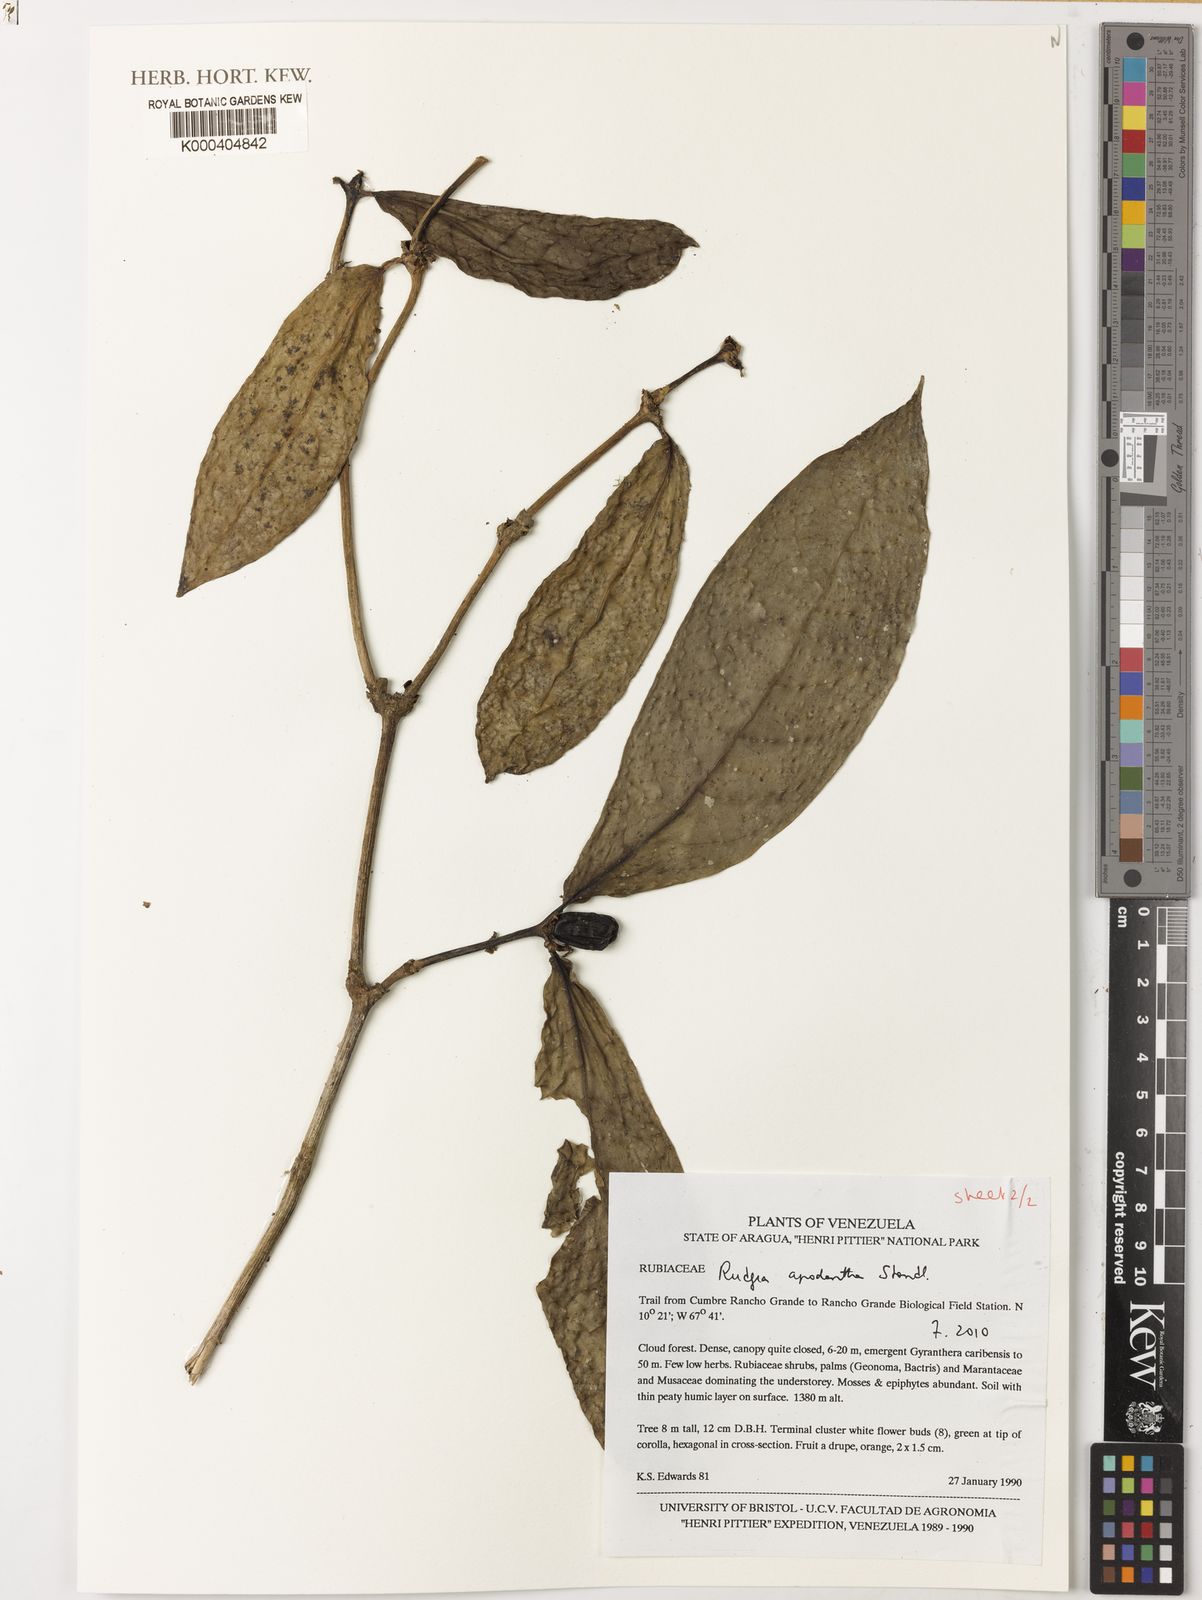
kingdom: Plantae
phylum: Tracheophyta
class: Magnoliopsida
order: Gentianales
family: Rubiaceae
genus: Rudgea
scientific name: Rudgea apodantha
